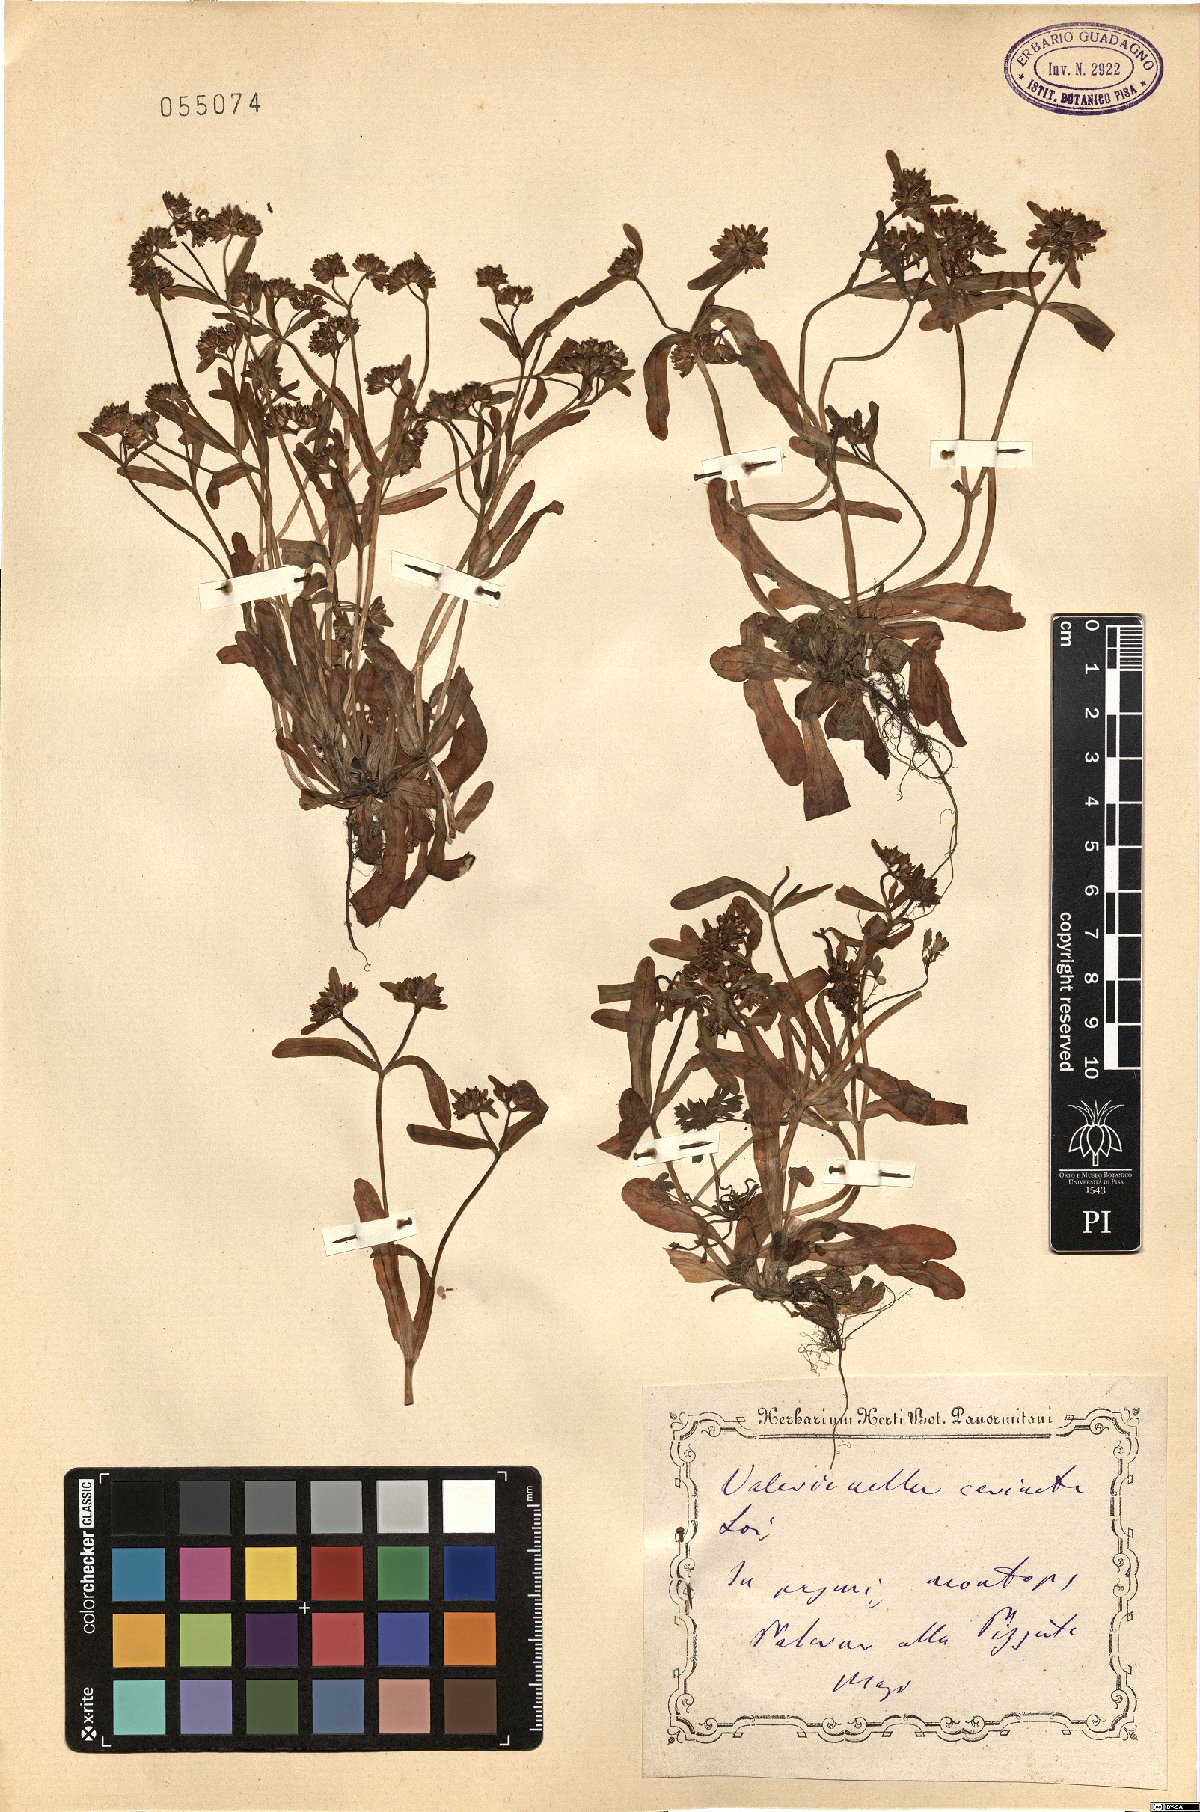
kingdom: Plantae
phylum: Tracheophyta
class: Magnoliopsida
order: Dipsacales
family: Caprifoliaceae
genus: Valerianella
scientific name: Valerianella carinata
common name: Keeled-fruited cornsalad
